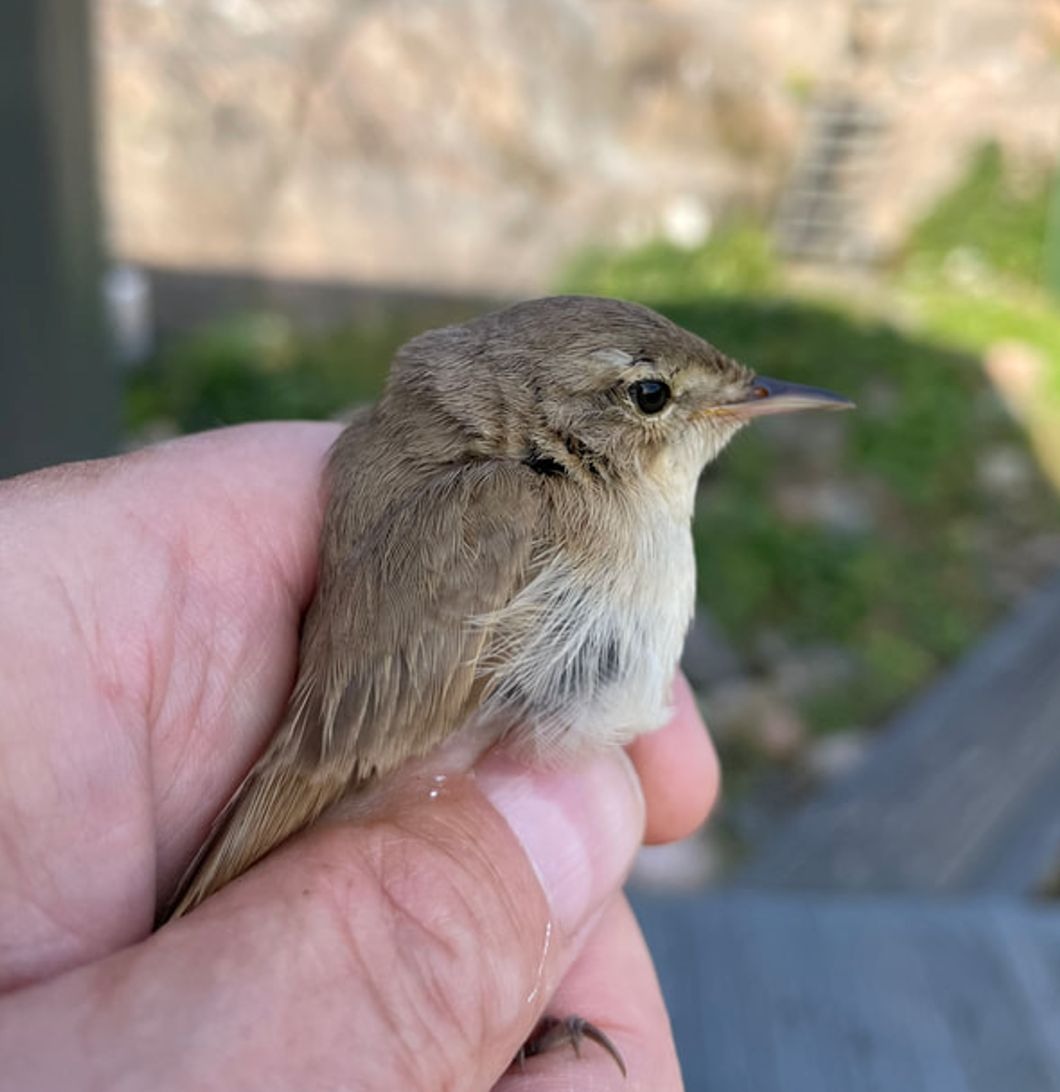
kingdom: Animalia
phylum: Chordata
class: Aves
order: Passeriformes
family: Acrocephalidae
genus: Iduna
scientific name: Iduna caligata
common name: Booted warbler
